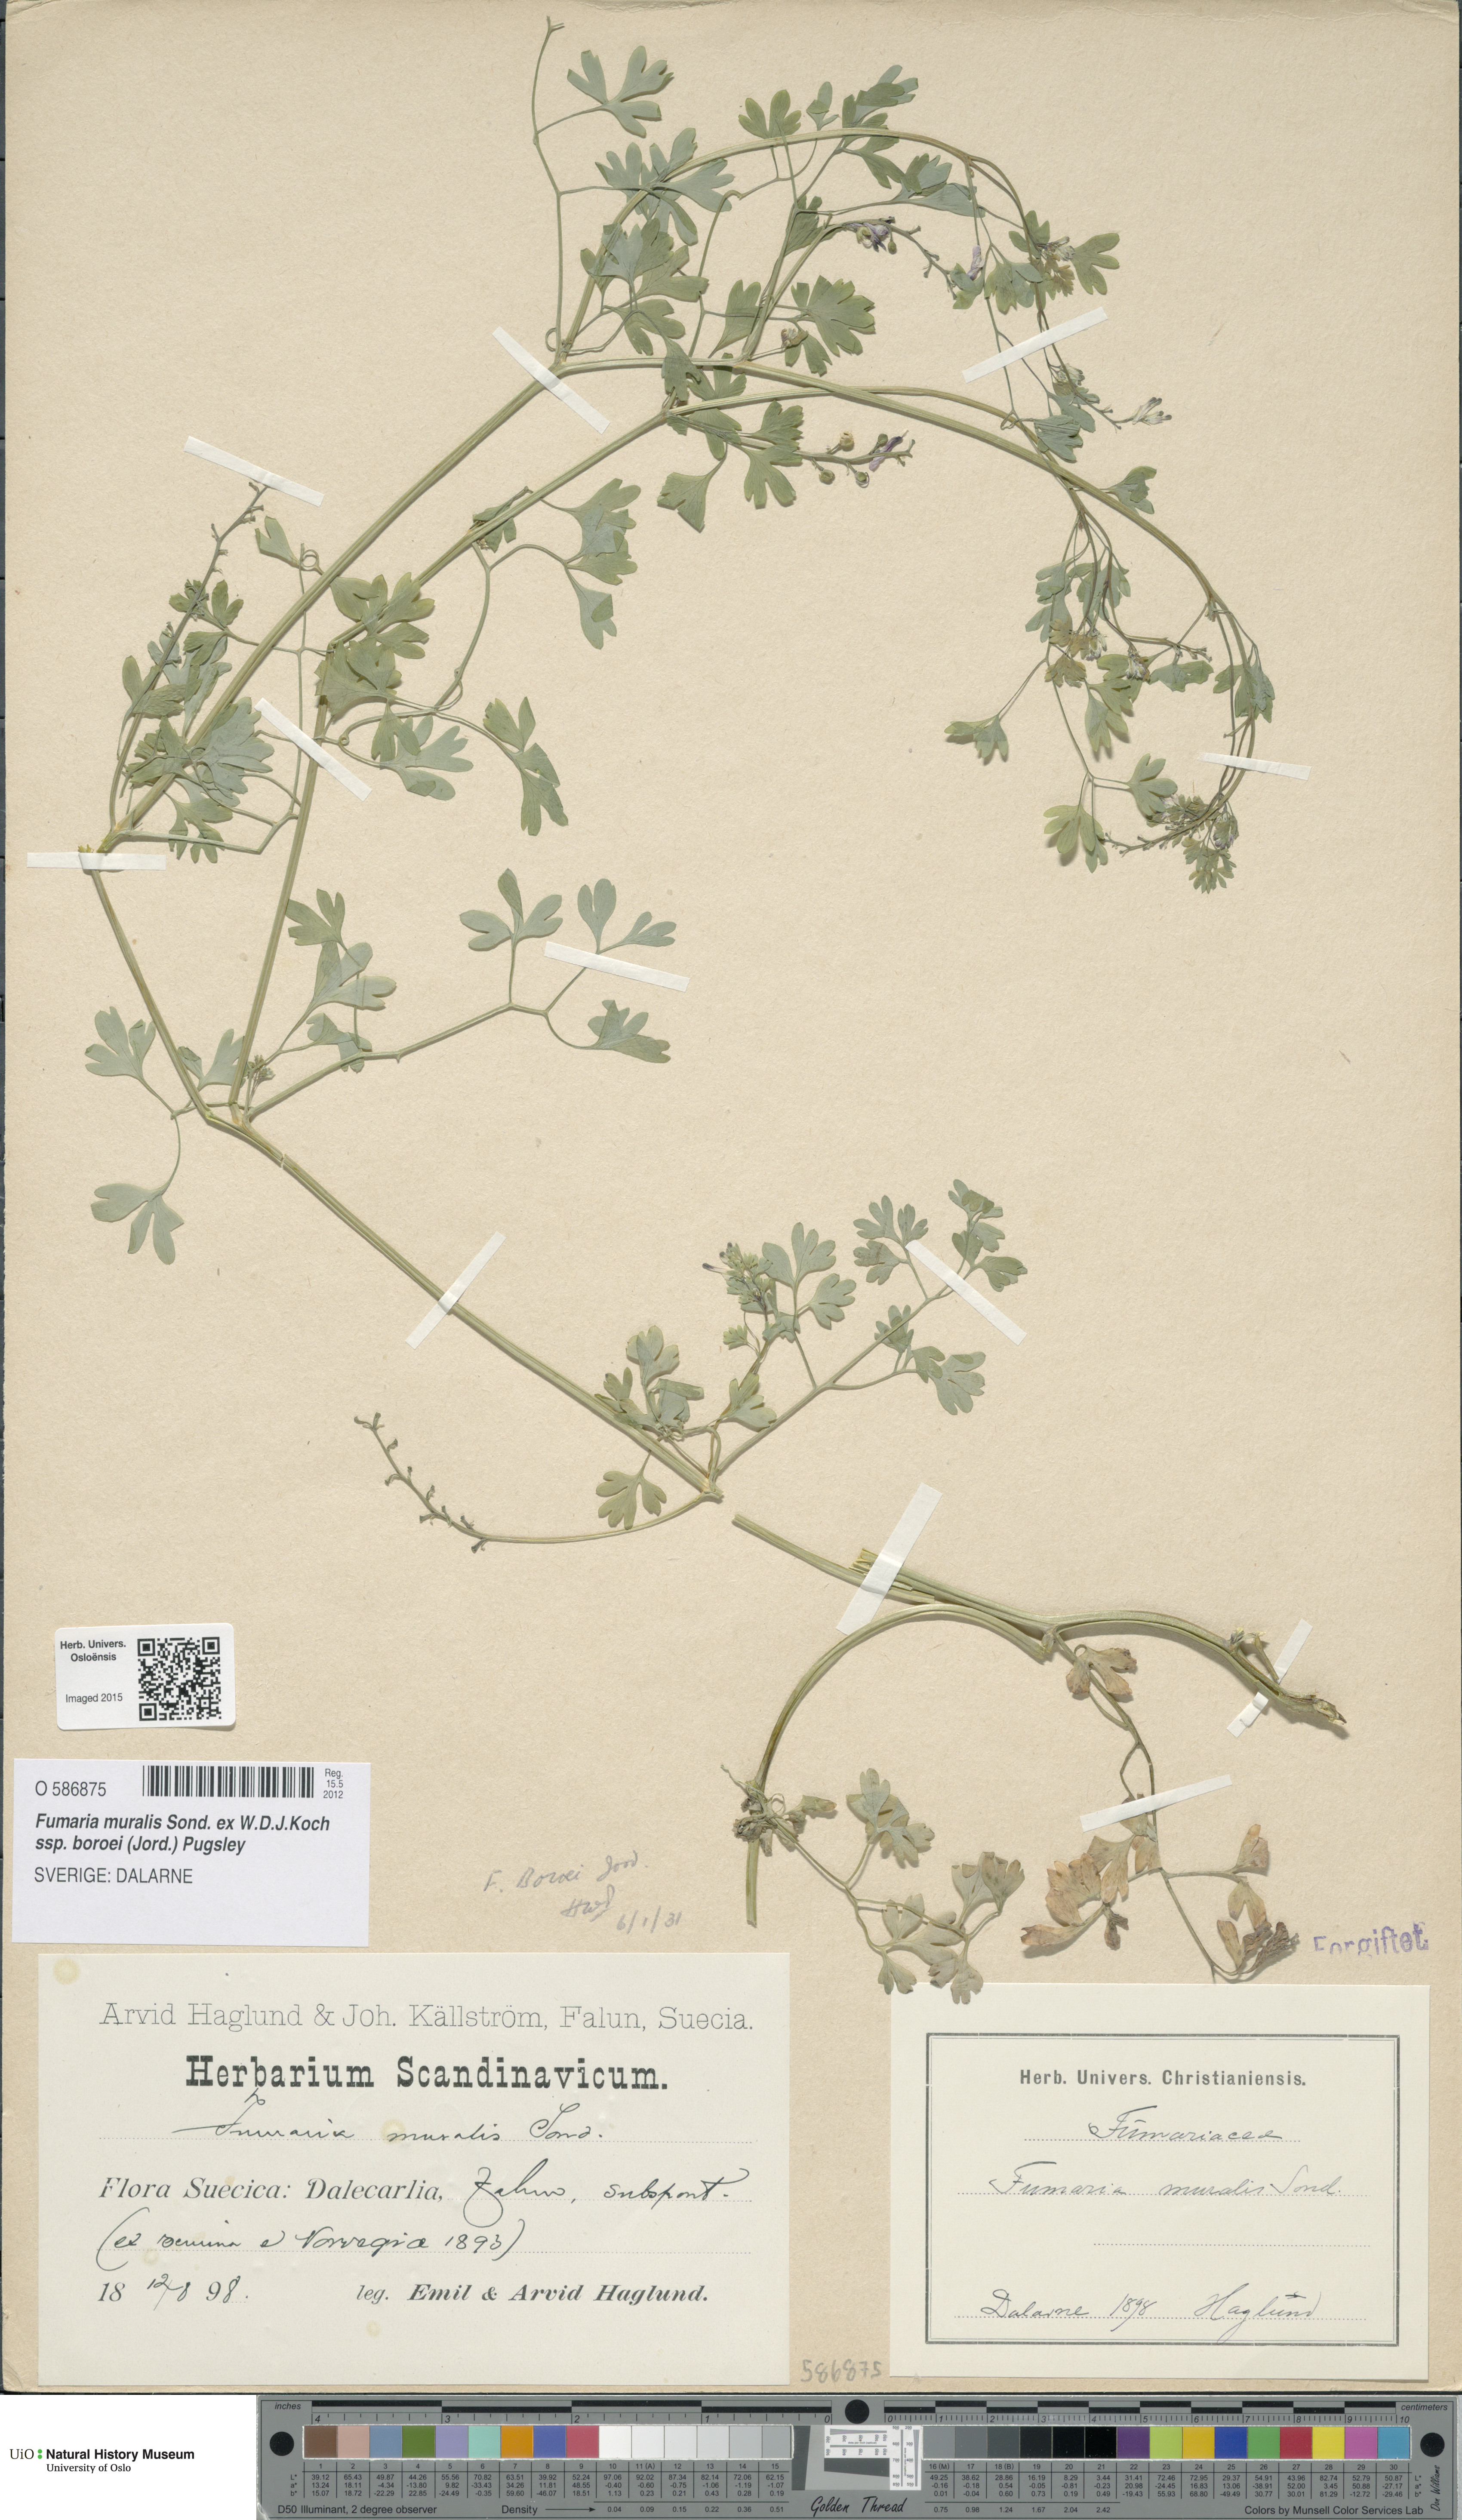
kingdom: Plantae
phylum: Tracheophyta
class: Magnoliopsida
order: Ranunculales
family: Papaveraceae
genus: Fumaria
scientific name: Fumaria muralis
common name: Common ramping-fumitory
